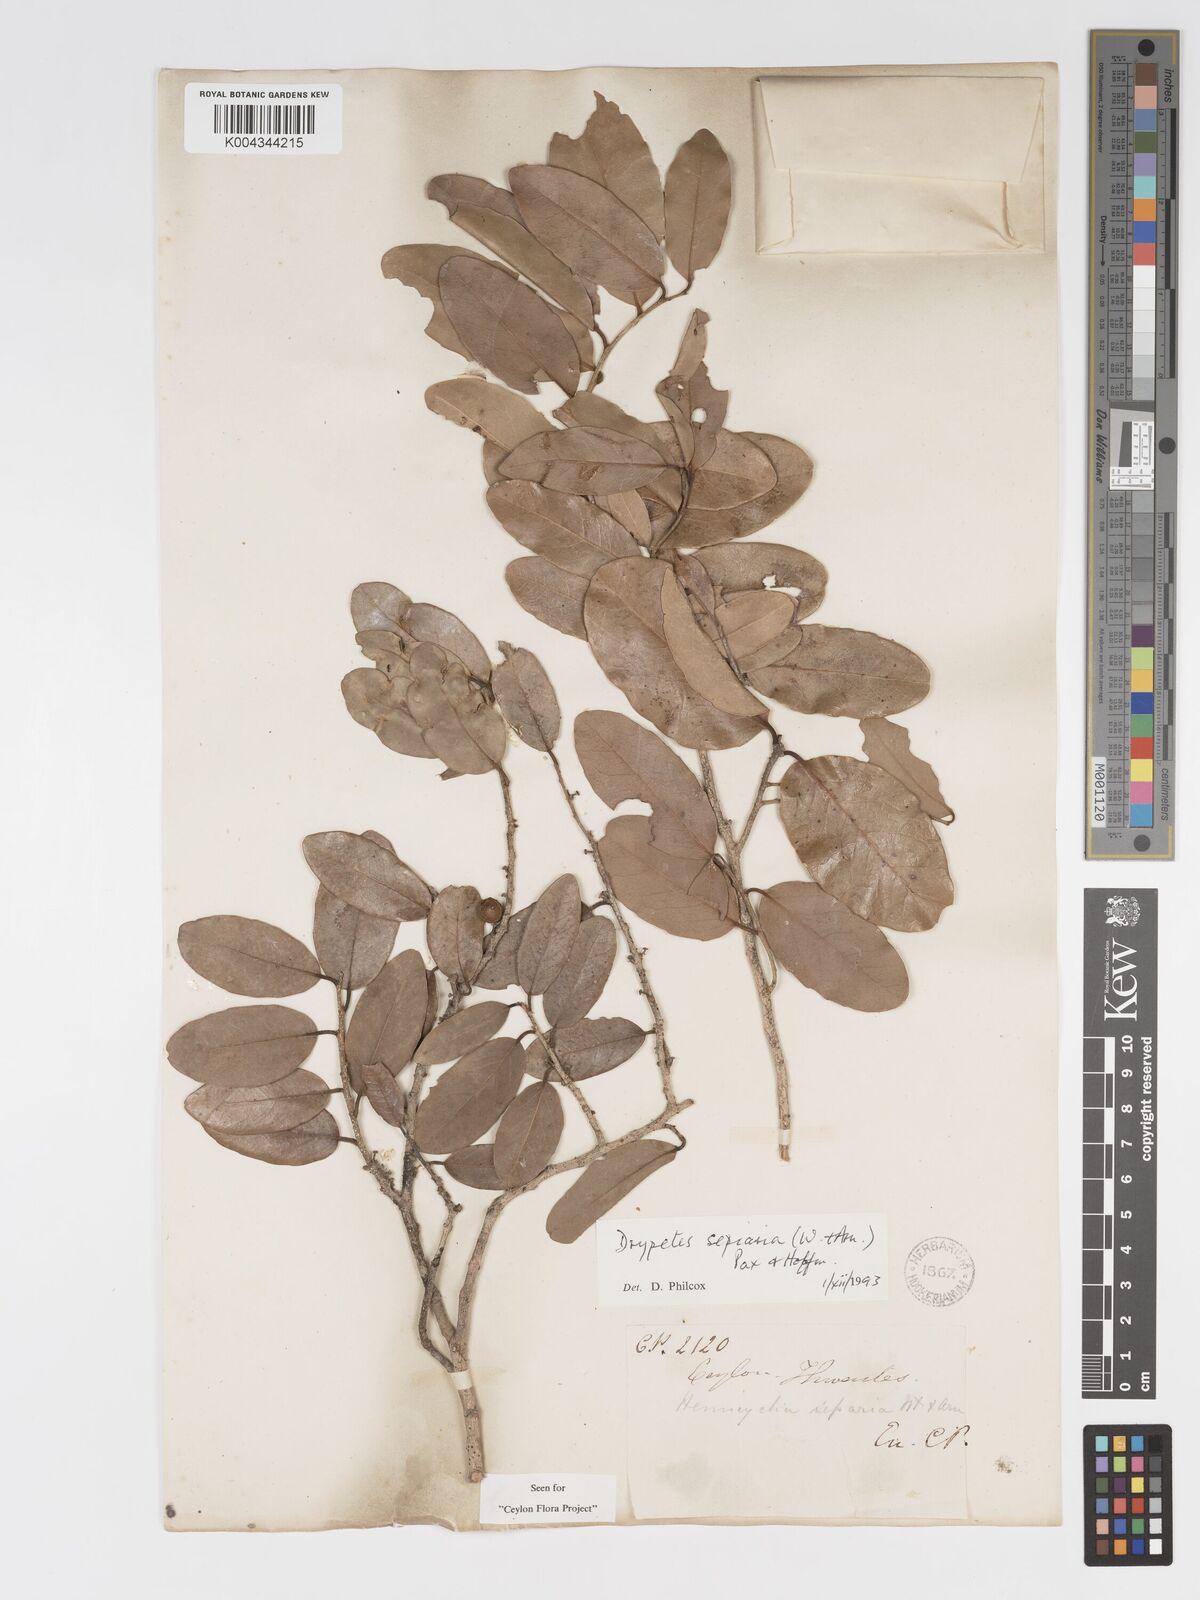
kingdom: Plantae
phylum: Tracheophyta
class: Magnoliopsida
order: Malpighiales
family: Putranjivaceae
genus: Drypetes
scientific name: Drypetes sepiaria
